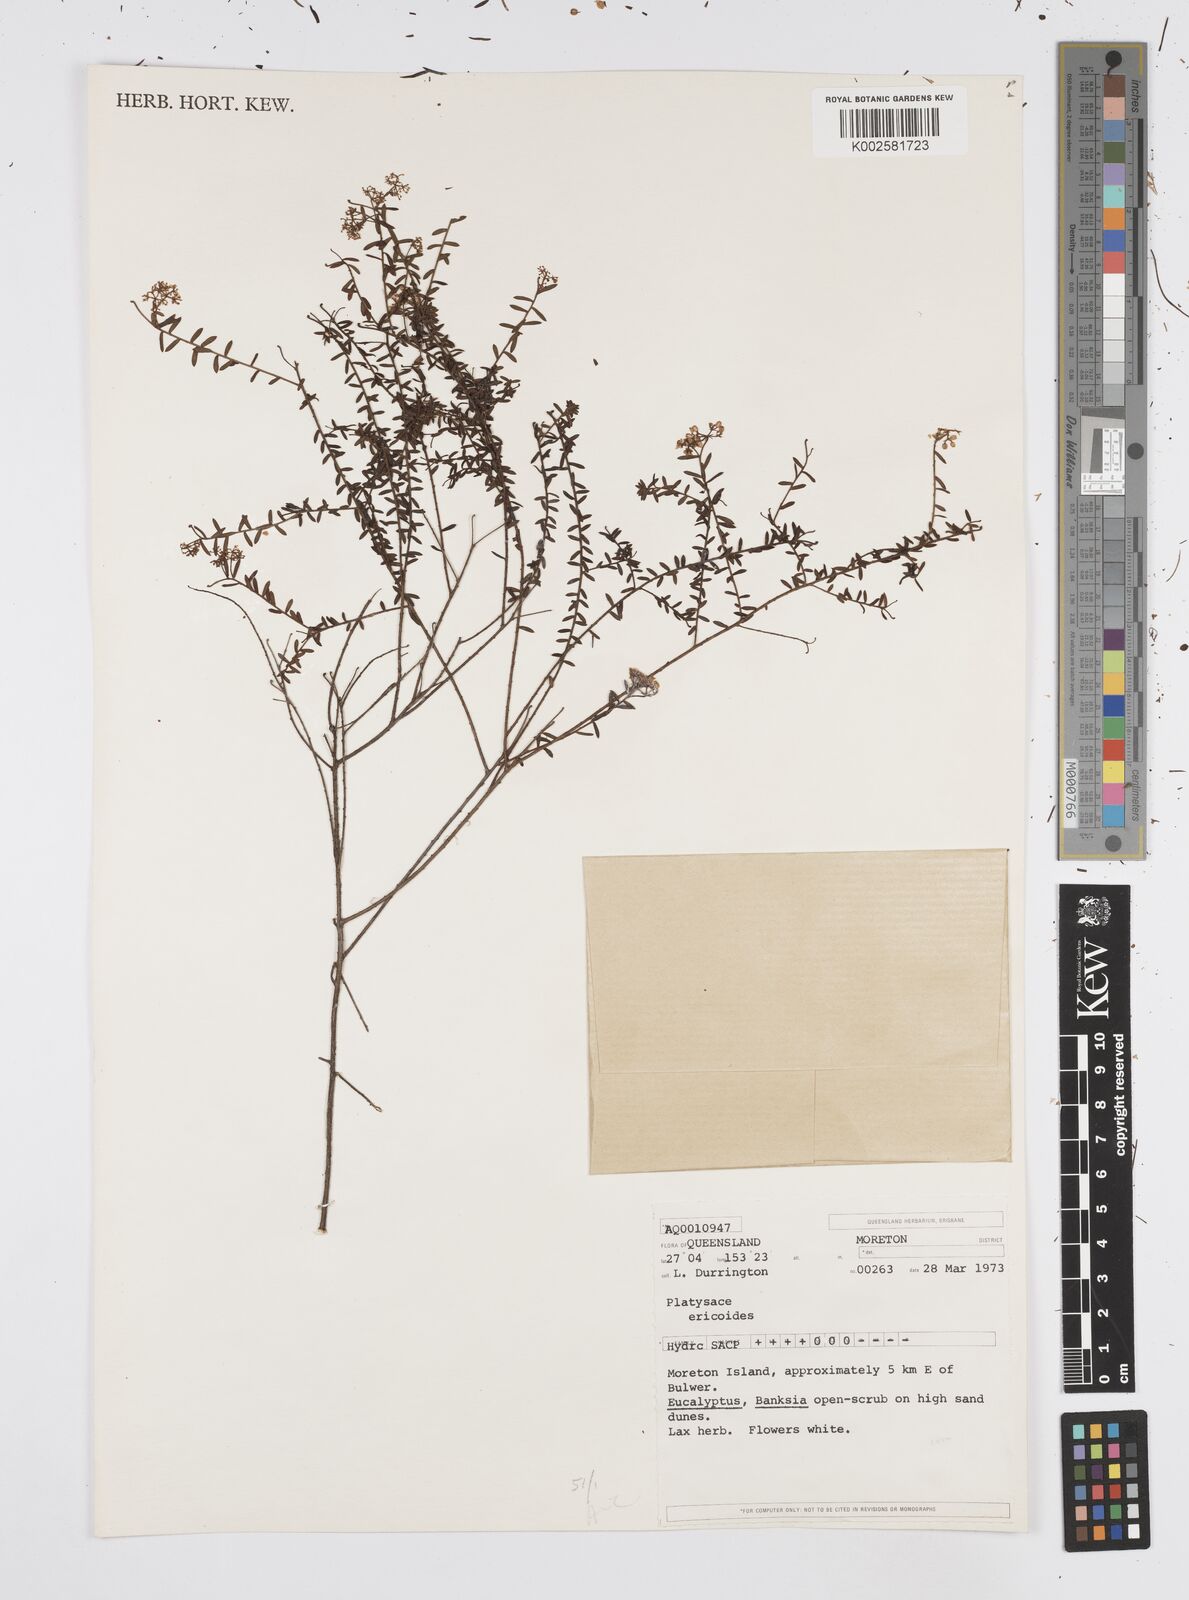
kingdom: Plantae
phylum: Tracheophyta
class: Magnoliopsida
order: Apiales
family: Apiaceae
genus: Platysace
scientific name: Platysace ericoides
